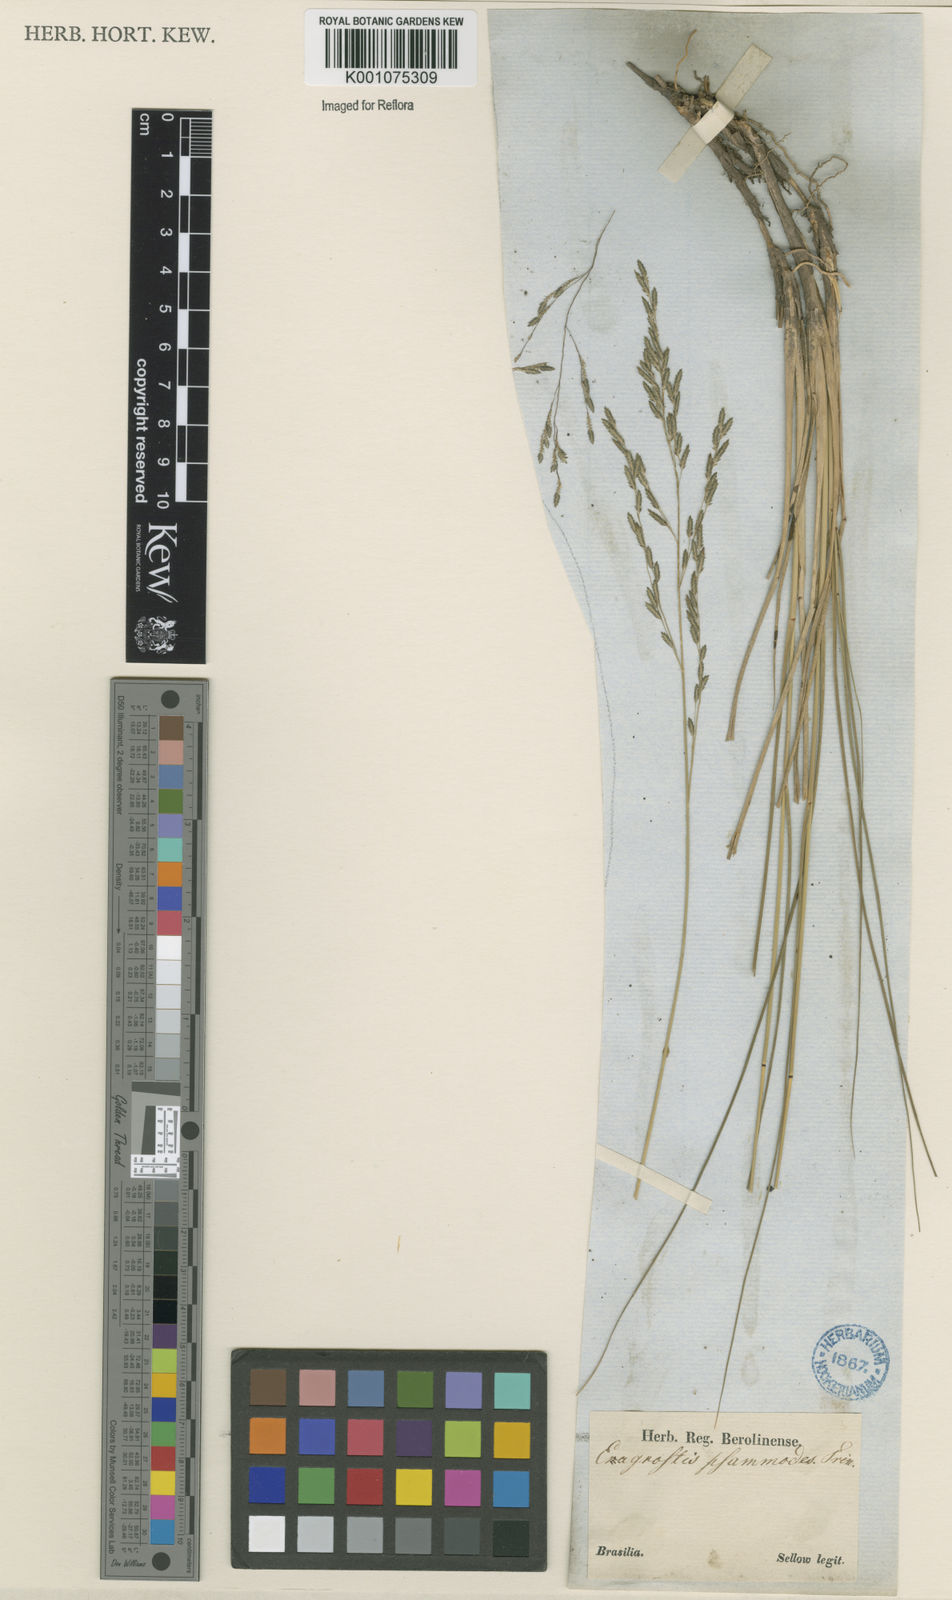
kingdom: Plantae
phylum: Tracheophyta
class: Liliopsida
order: Poales
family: Poaceae
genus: Eragrostis
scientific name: Eragrostis bahiensis
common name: Bahia lovegrass
